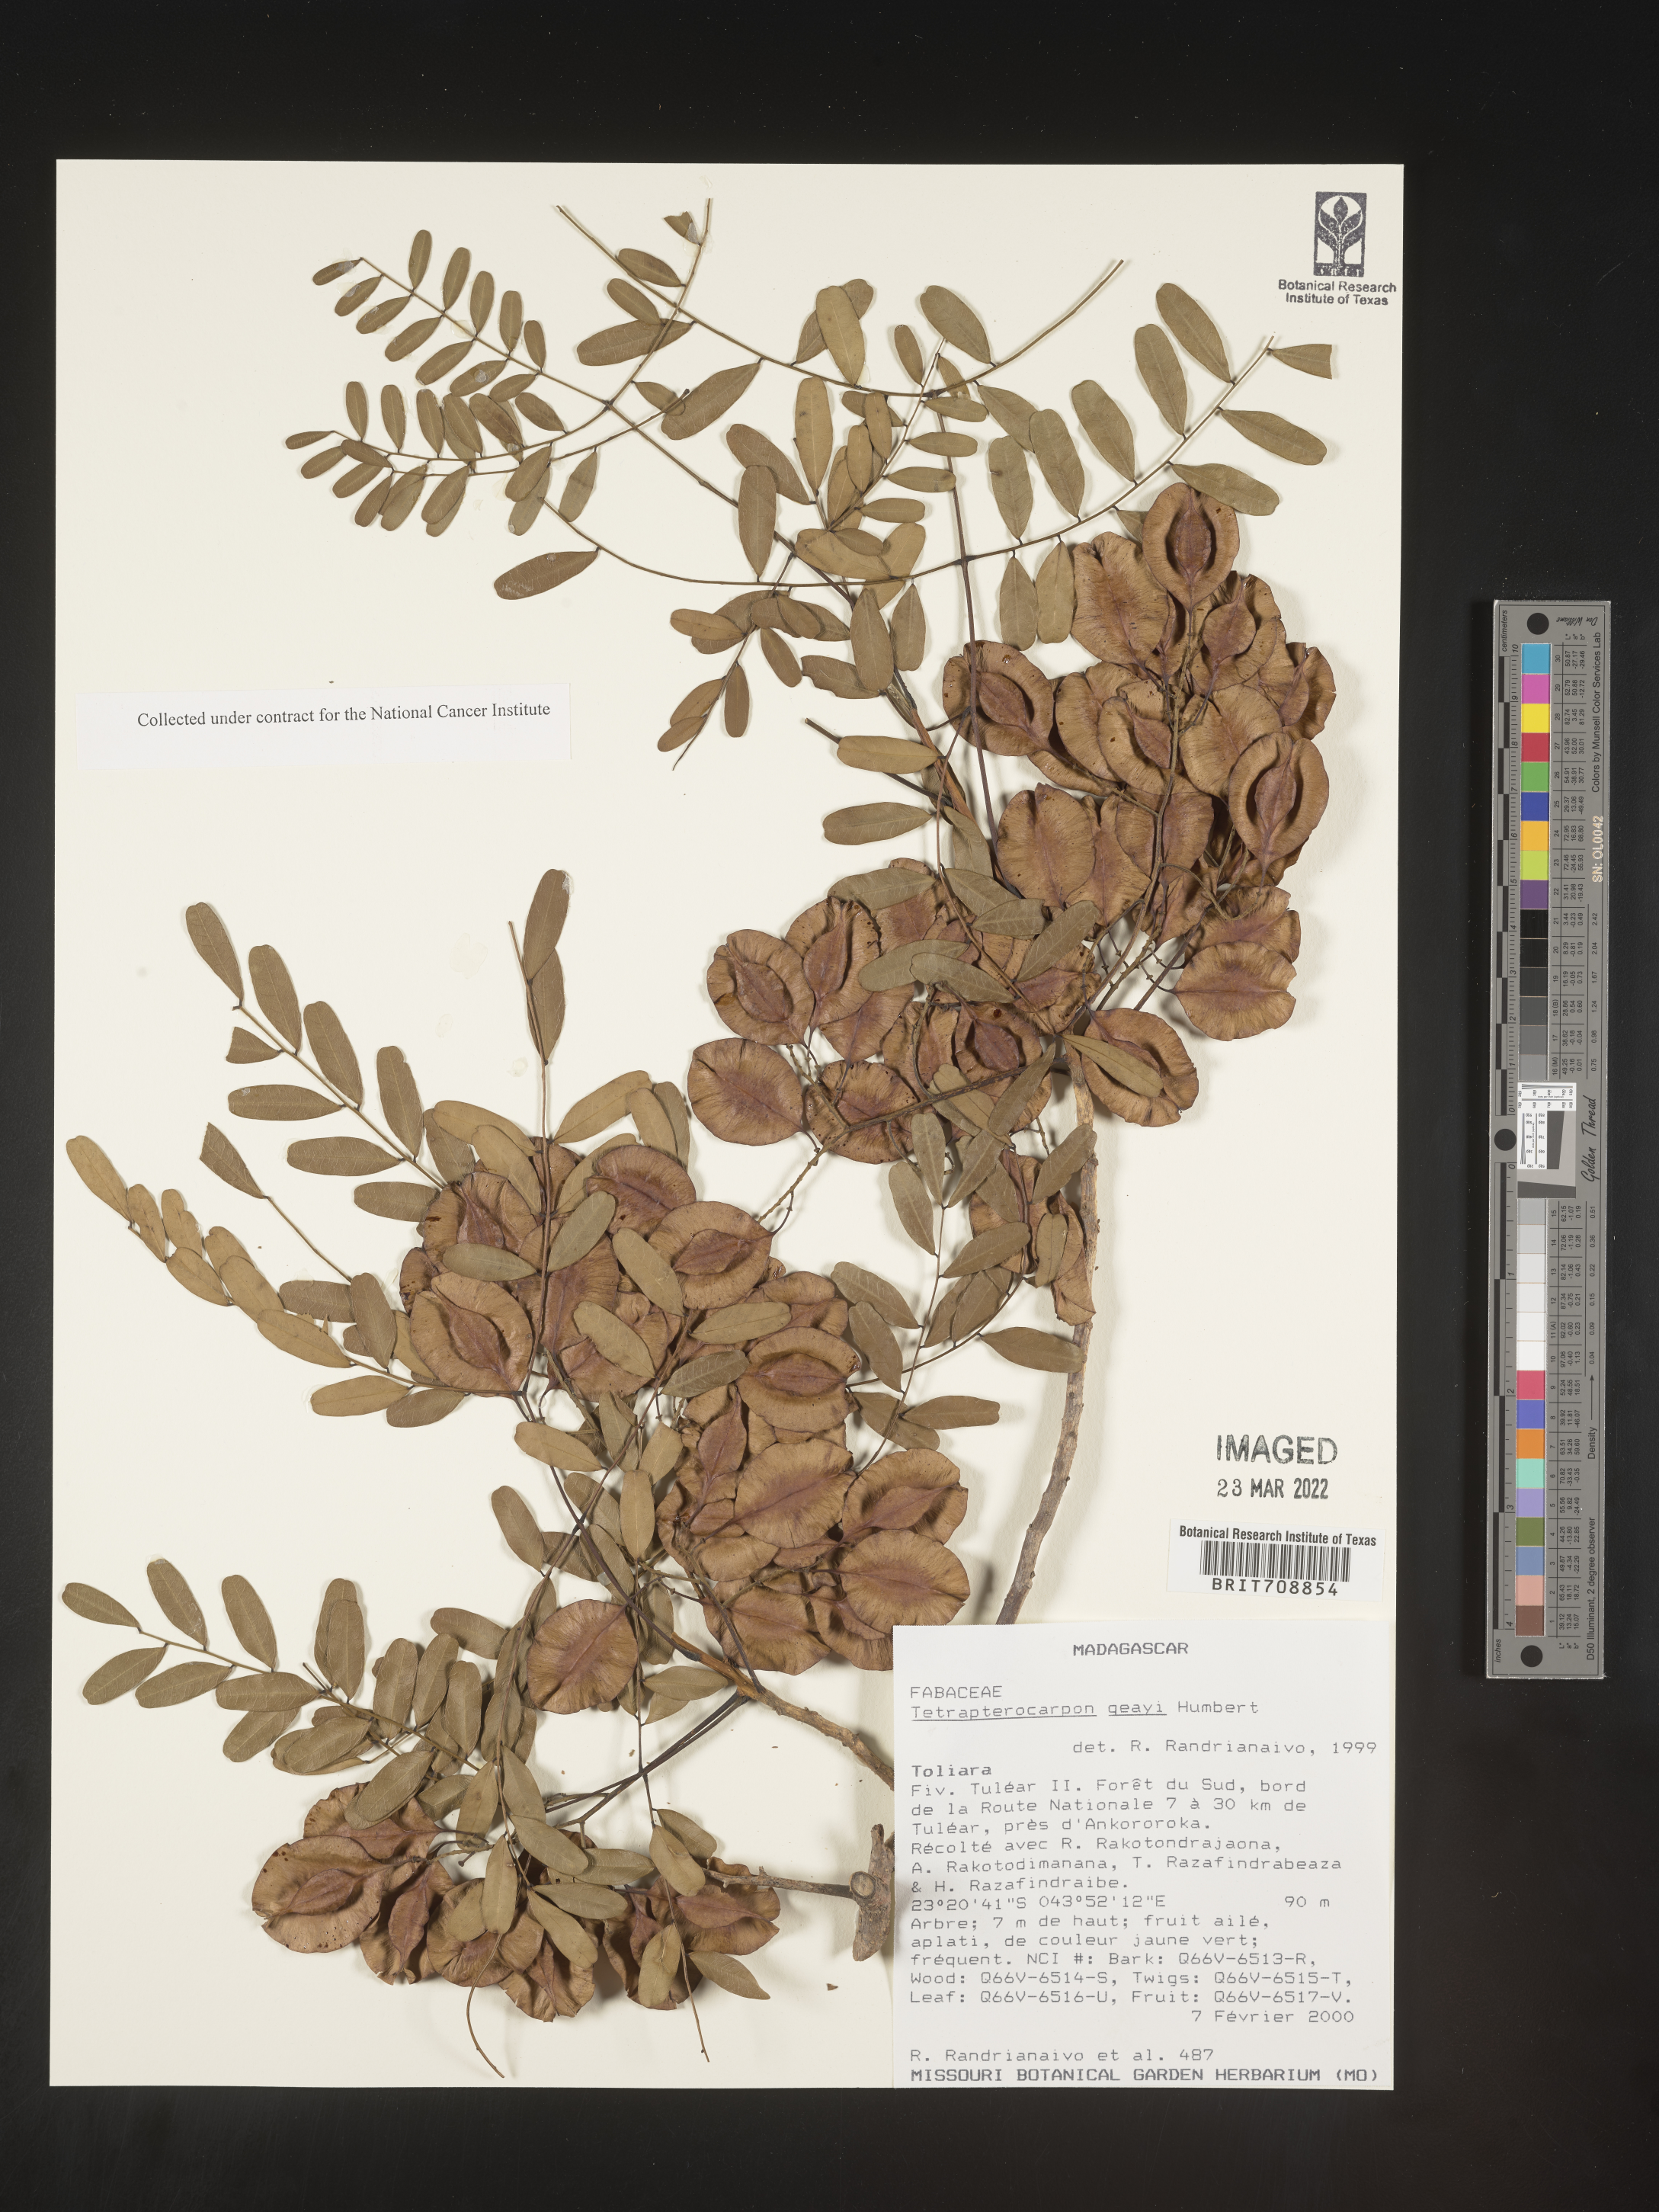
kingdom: Plantae
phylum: Tracheophyta
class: Magnoliopsida
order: Fabales
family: Fabaceae
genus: Tetrapterocarpon
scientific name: Tetrapterocarpon
